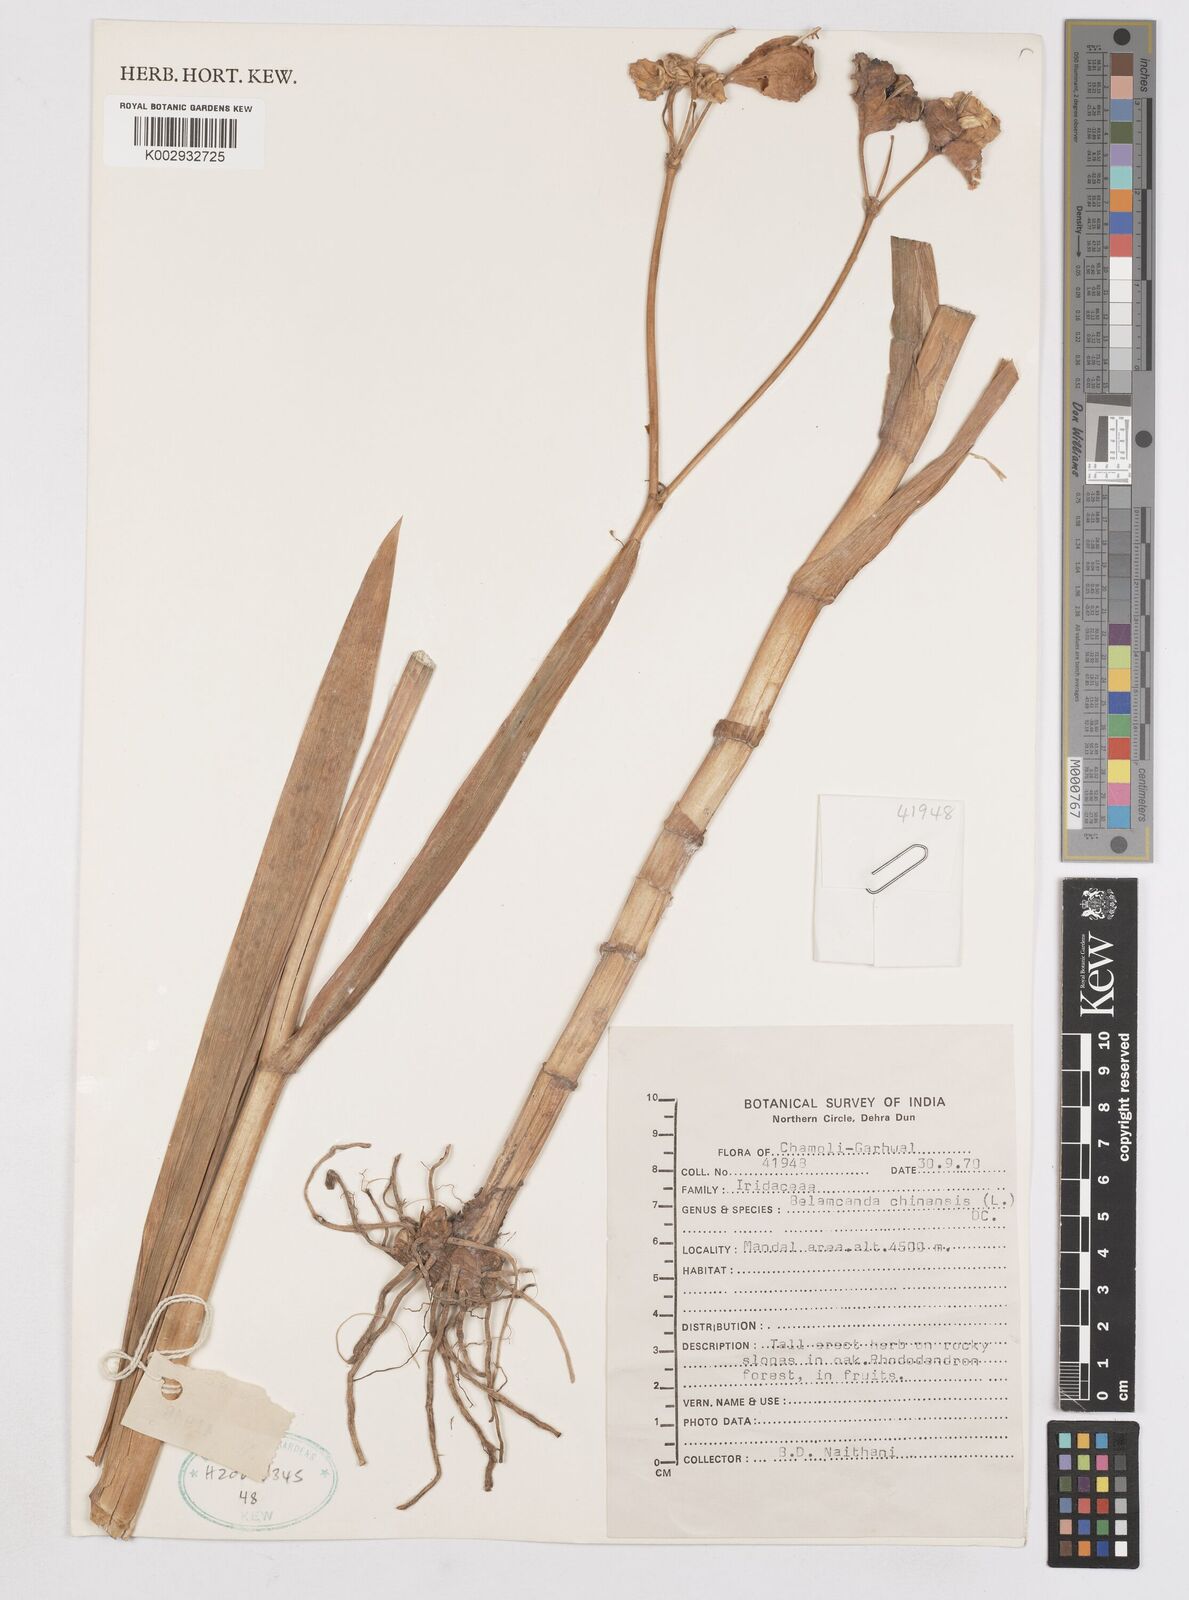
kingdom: Plantae
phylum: Tracheophyta
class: Liliopsida
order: Asparagales
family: Iridaceae
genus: Iris
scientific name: Iris
